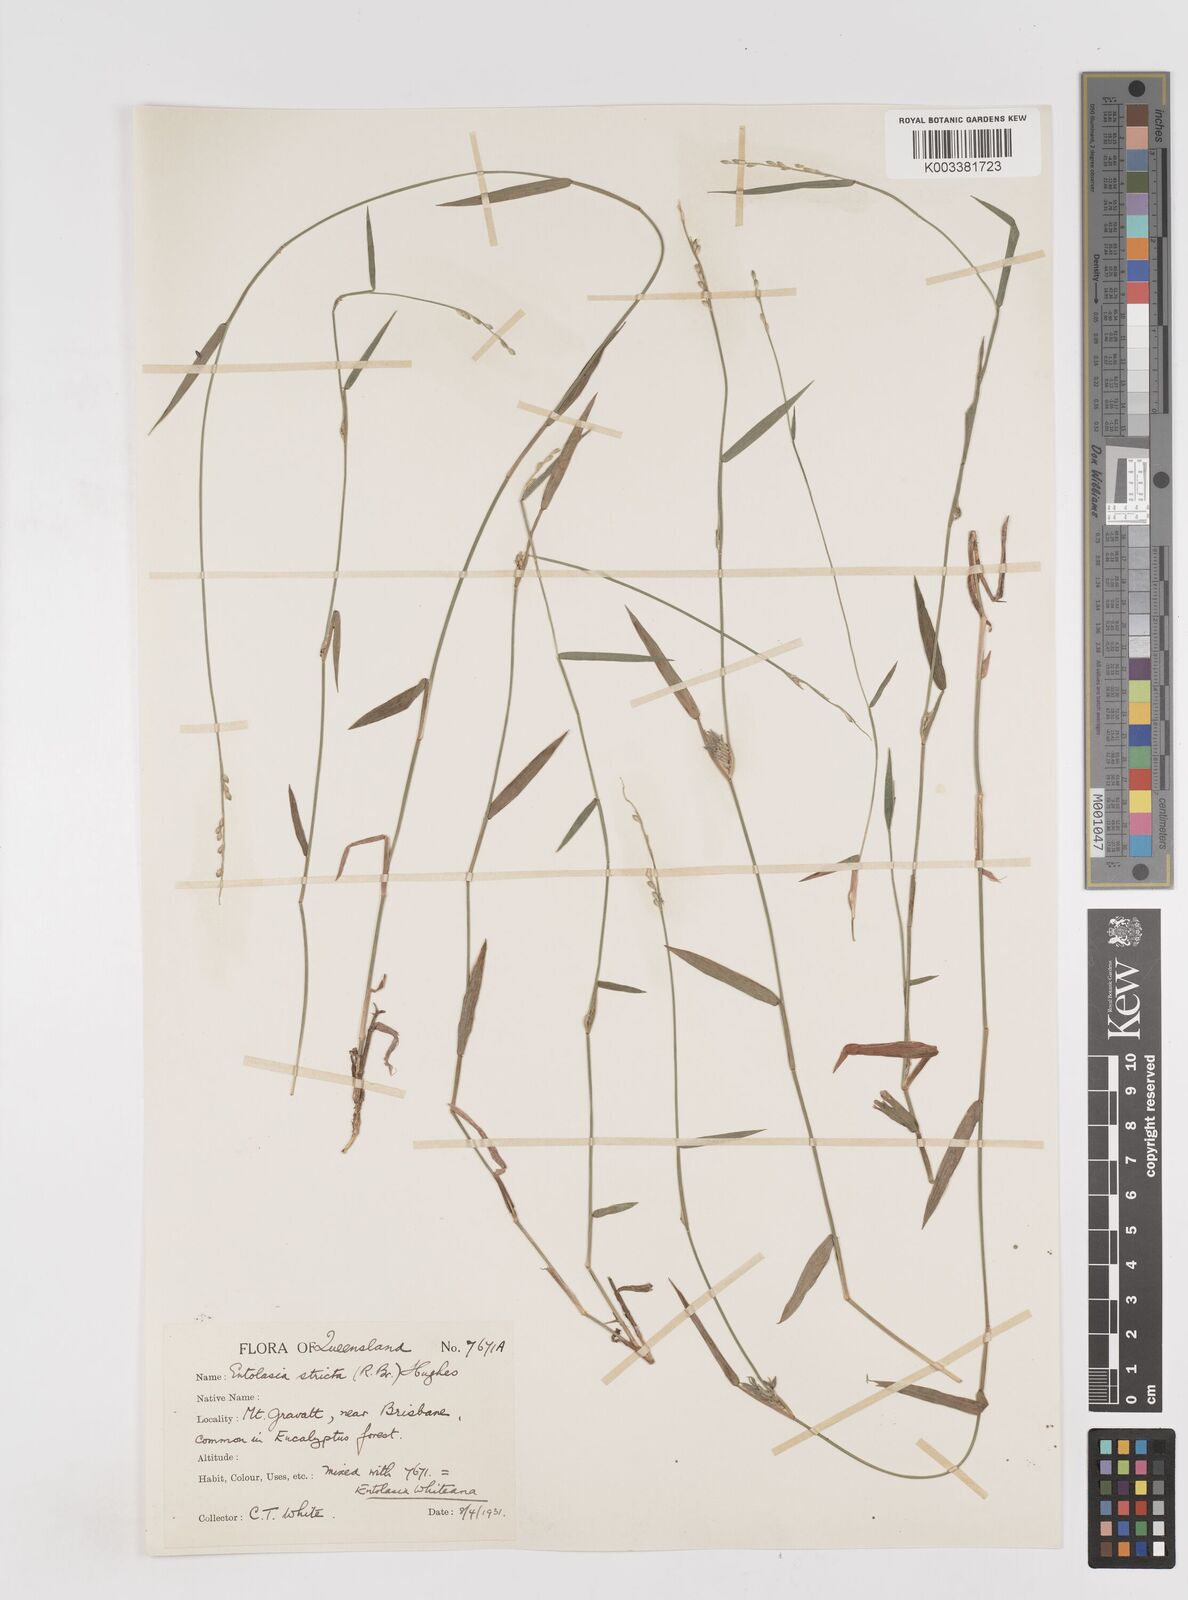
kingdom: Plantae
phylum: Tracheophyta
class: Liliopsida
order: Poales
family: Poaceae
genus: Entolasia
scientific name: Entolasia stricta
